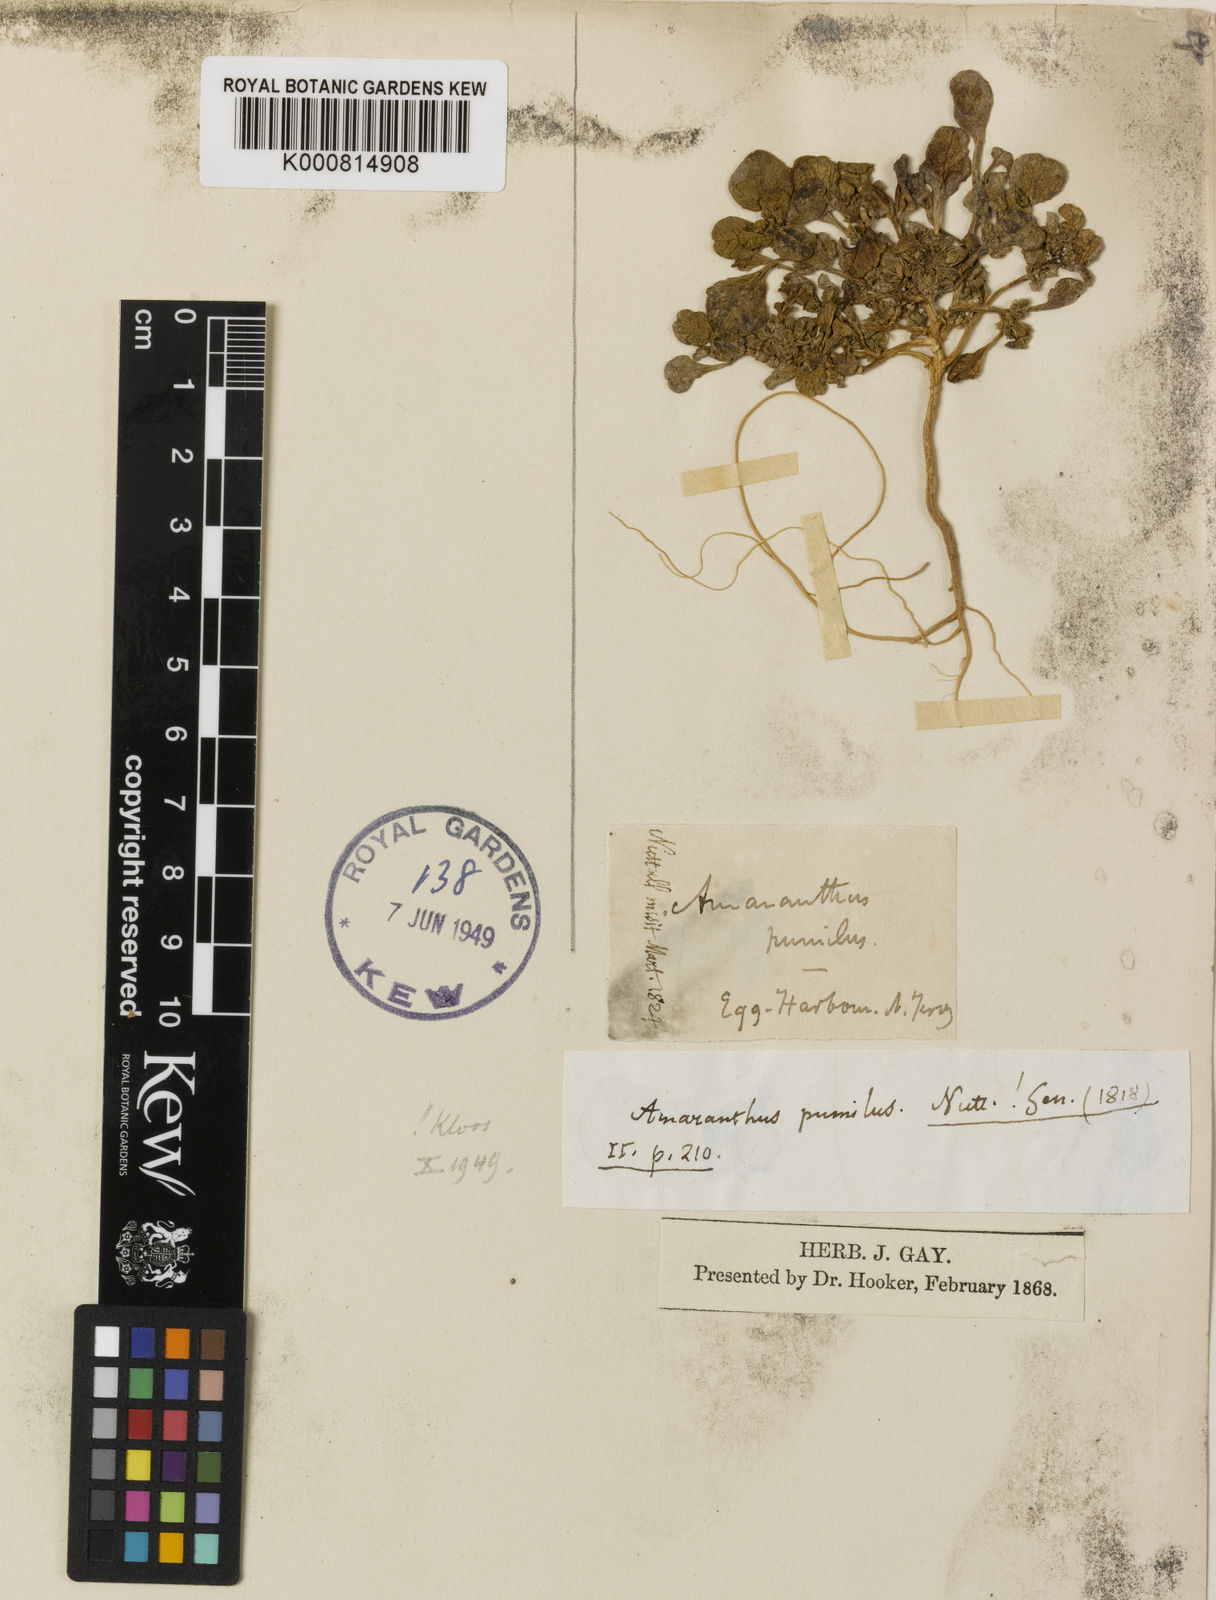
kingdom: Plantae
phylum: Tracheophyta
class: Magnoliopsida
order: Caryophyllales
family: Amaranthaceae
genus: Amaranthus
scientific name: Amaranthus
